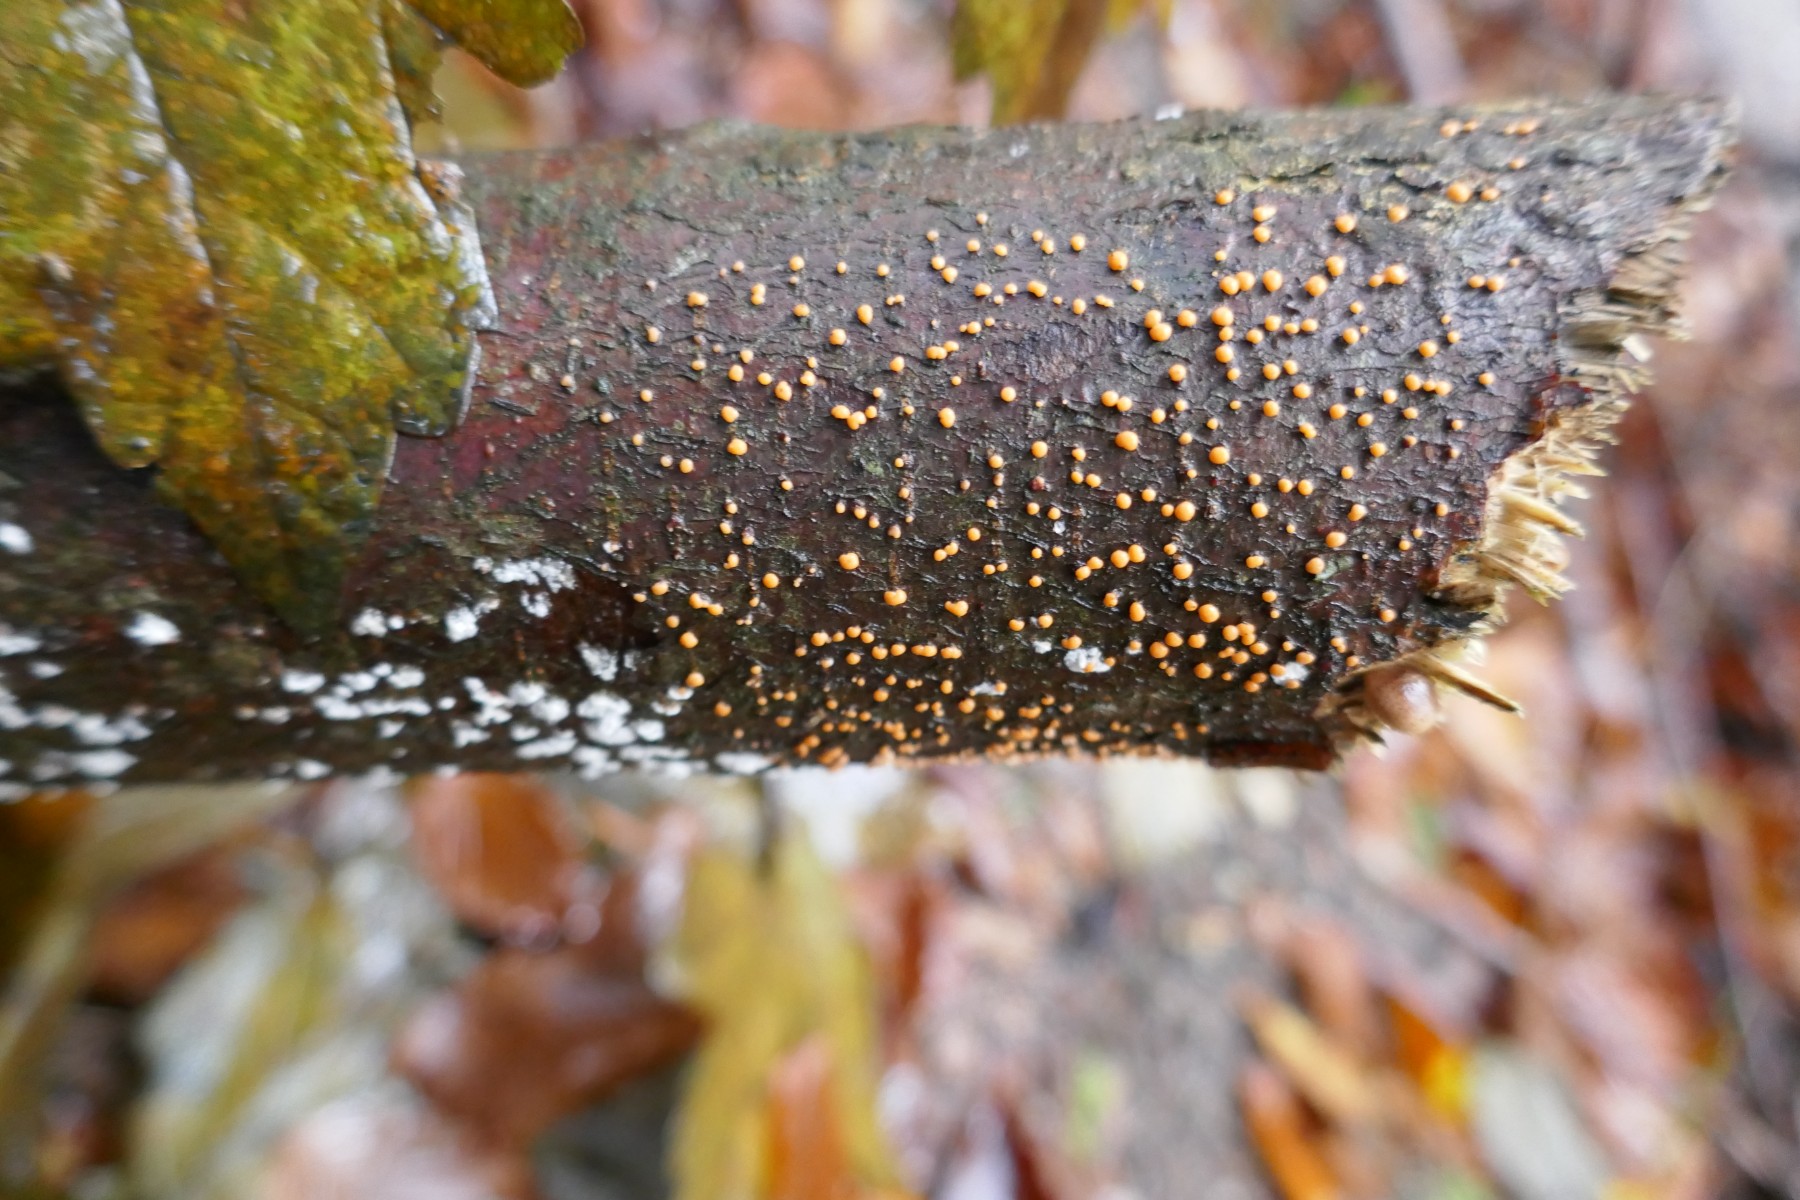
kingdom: Fungi
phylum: Ascomycota
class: Sordariomycetes
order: Hypocreales
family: Nectriaceae
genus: Nectria
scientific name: Nectria cinnabarina
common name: almindelig cinnobersvamp
